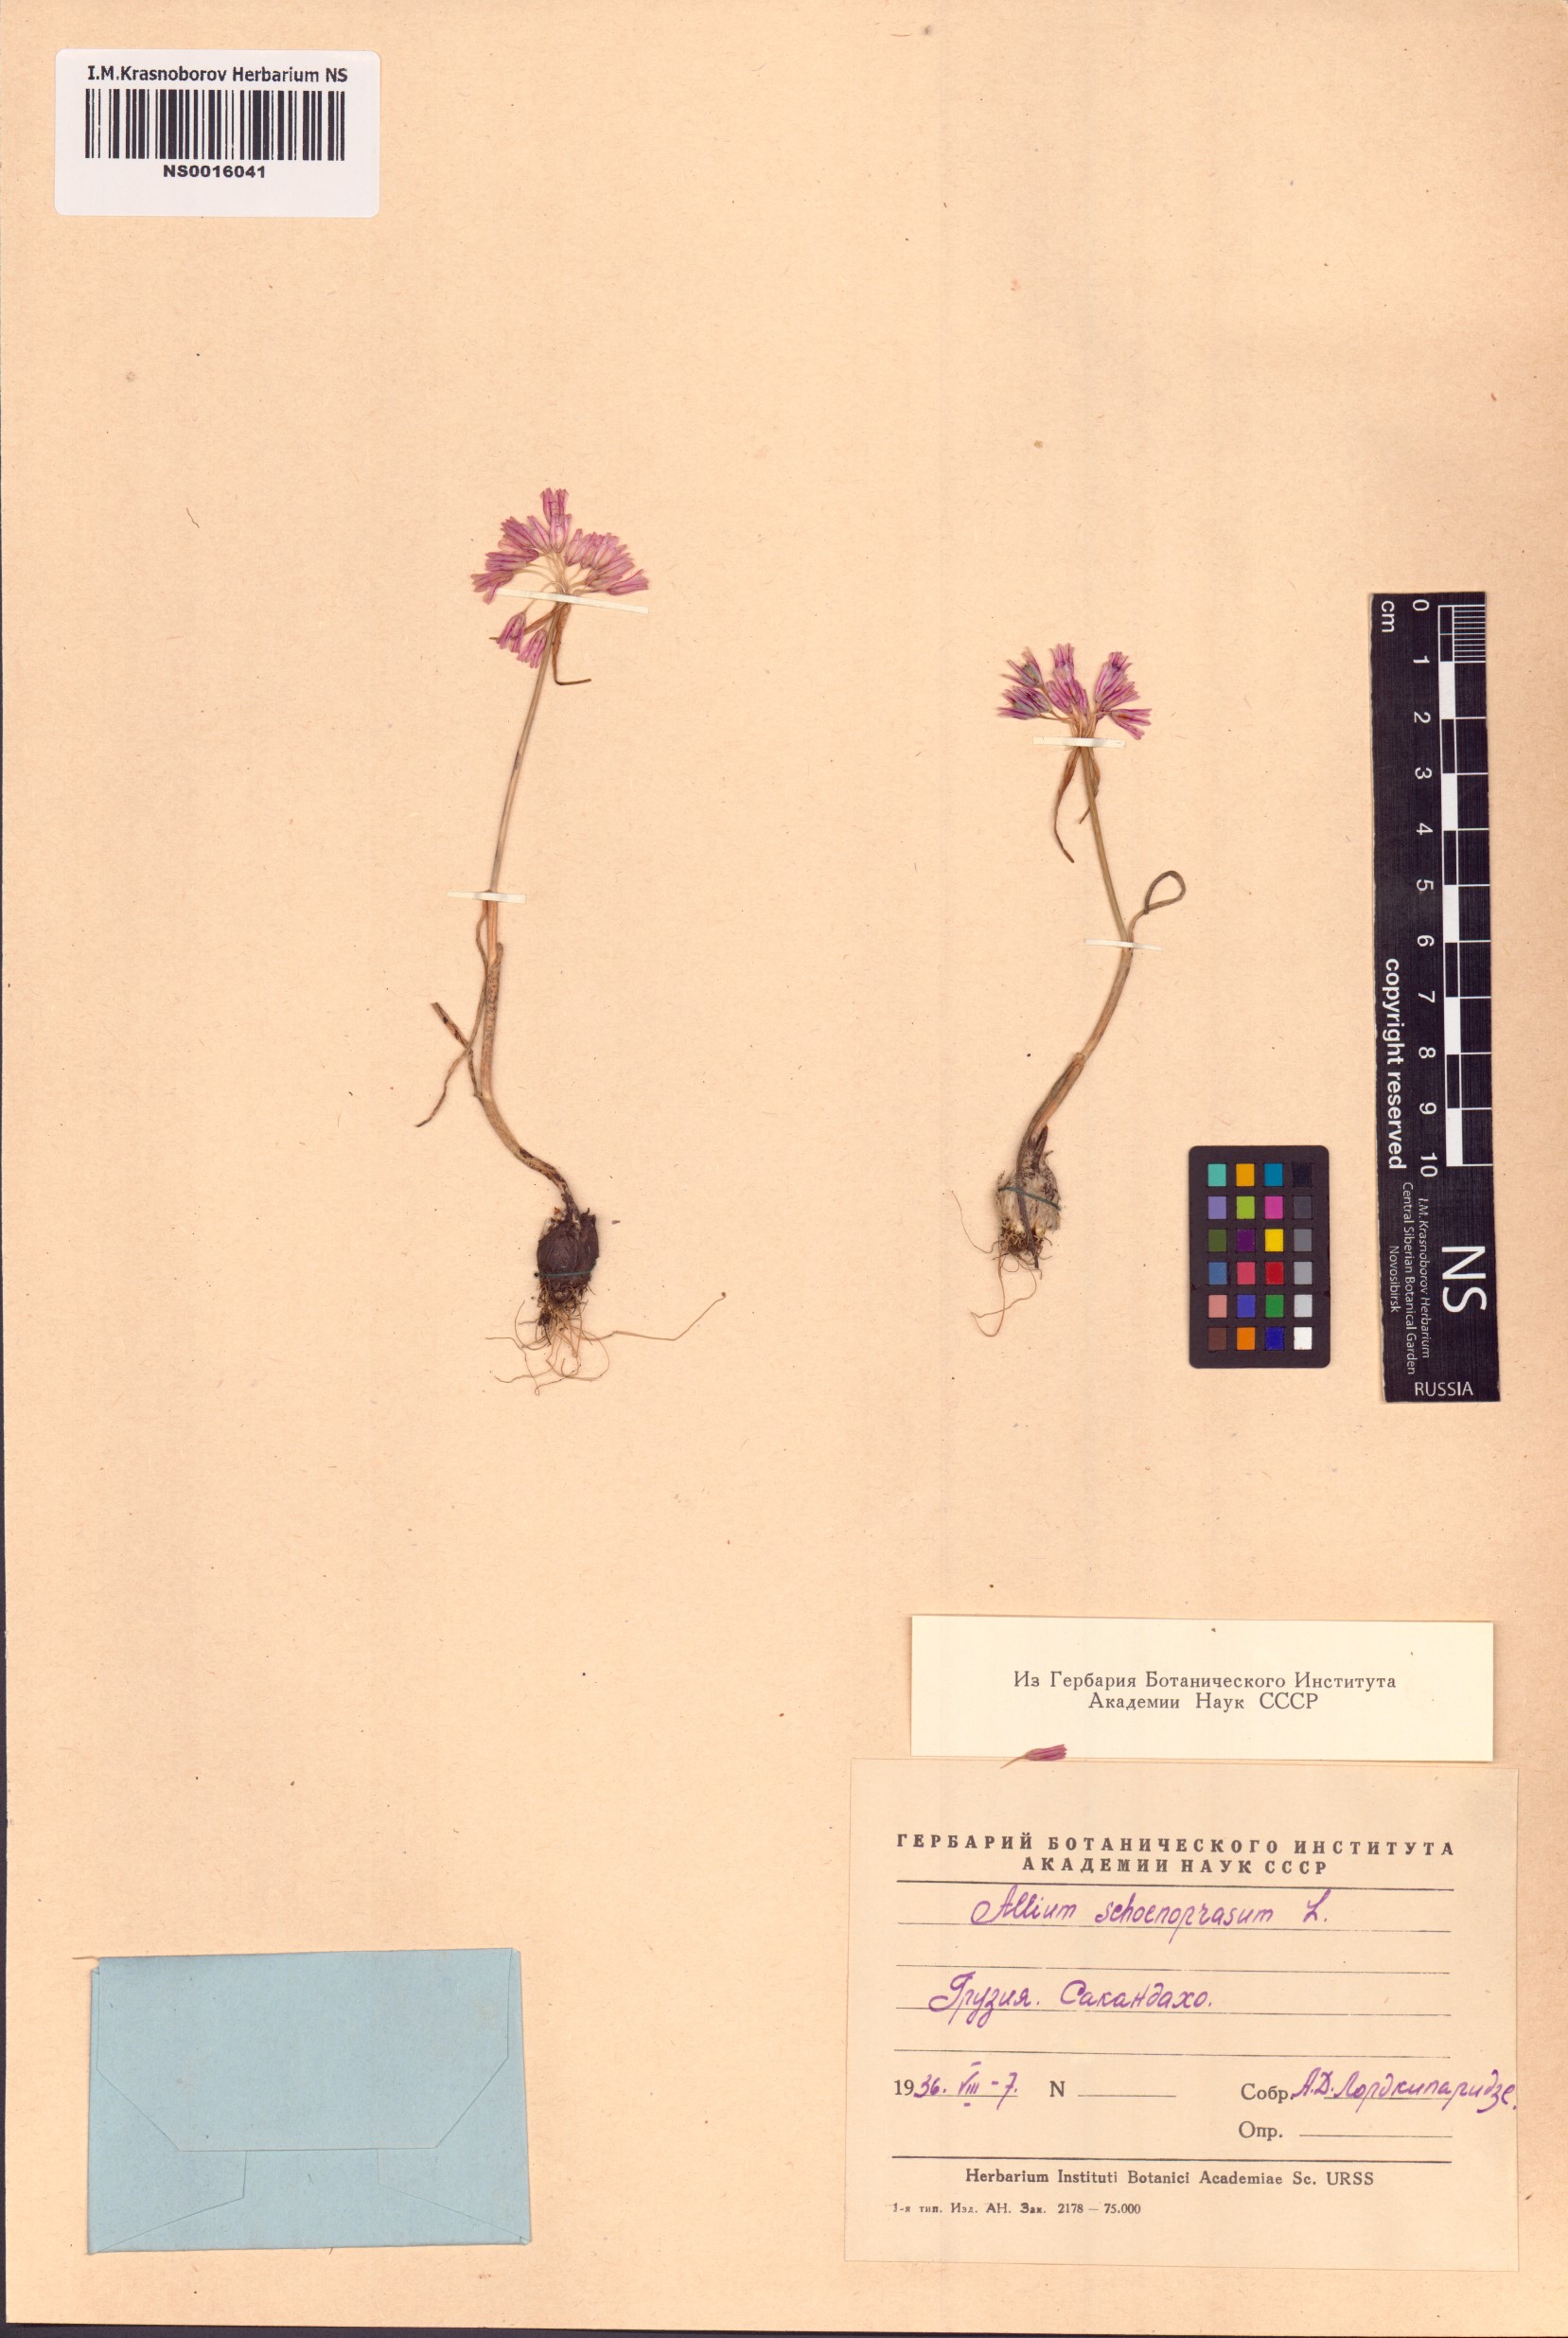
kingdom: Plantae
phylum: Tracheophyta
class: Liliopsida
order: Asparagales
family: Amaryllidaceae
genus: Allium
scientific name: Allium schoenoprasum
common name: Chives
